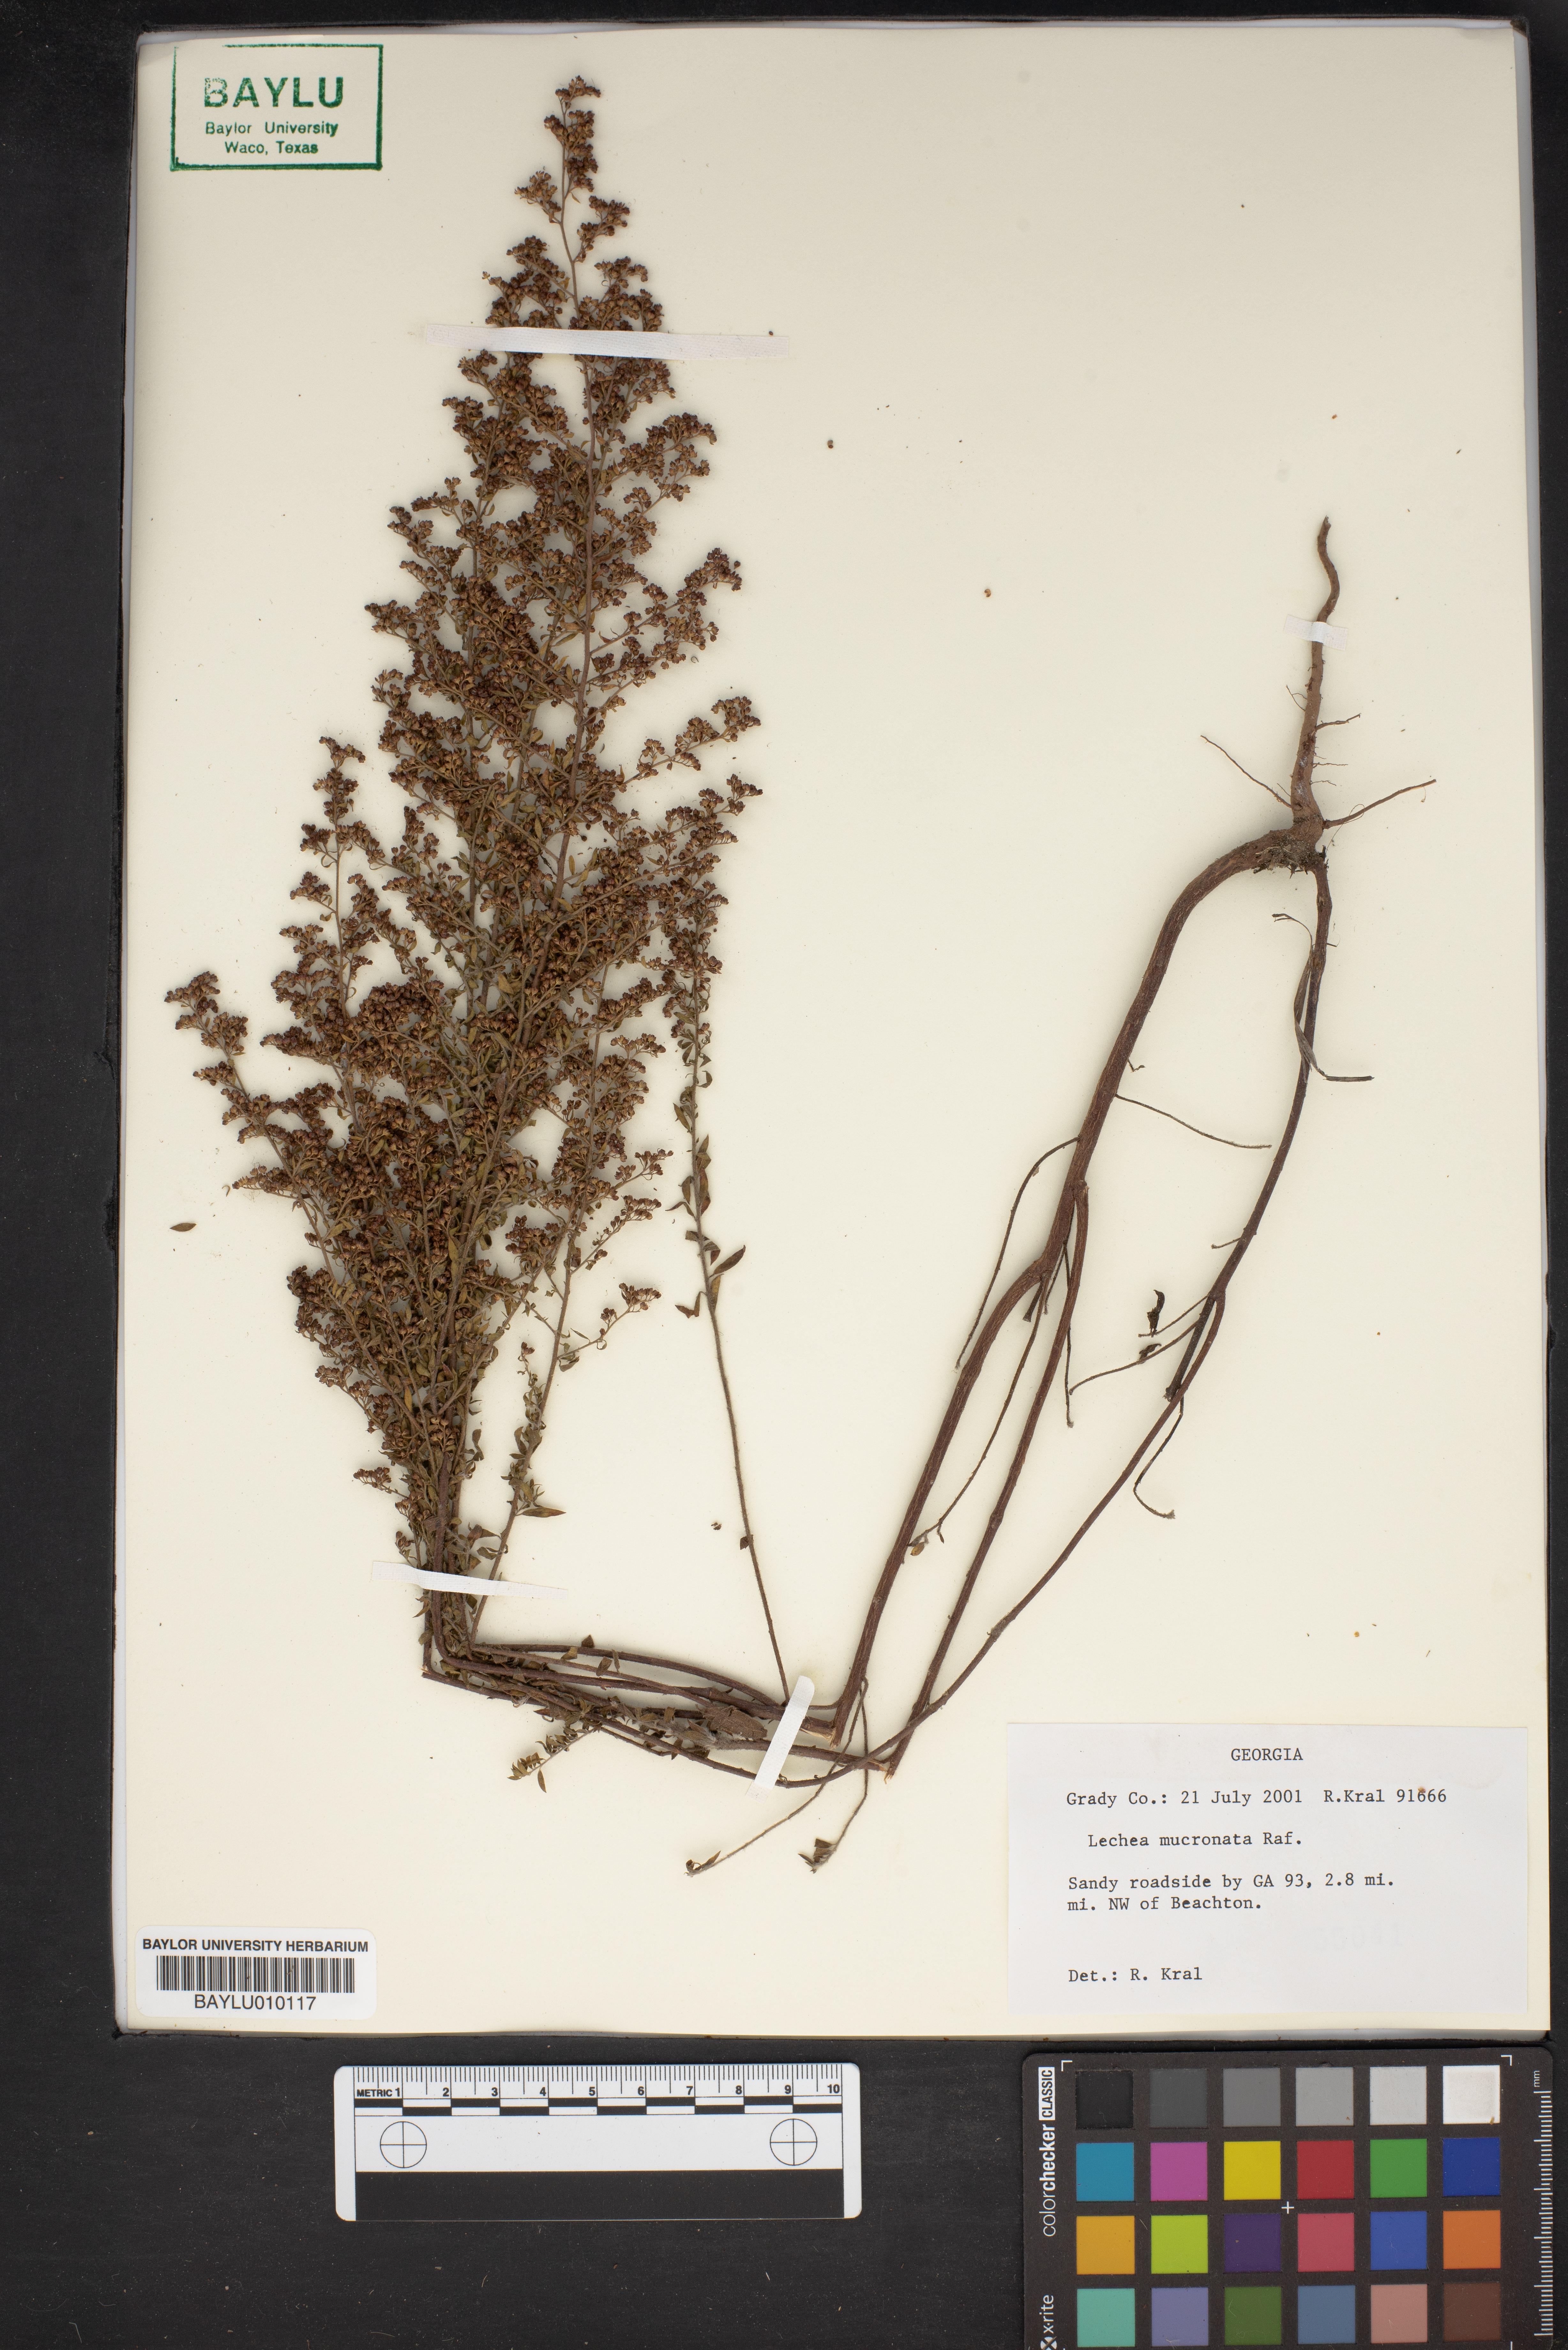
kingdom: Plantae
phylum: Tracheophyta
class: Magnoliopsida
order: Malvales
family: Cistaceae
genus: Lechea
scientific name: Lechea mucronata
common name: Hairy pinweed
